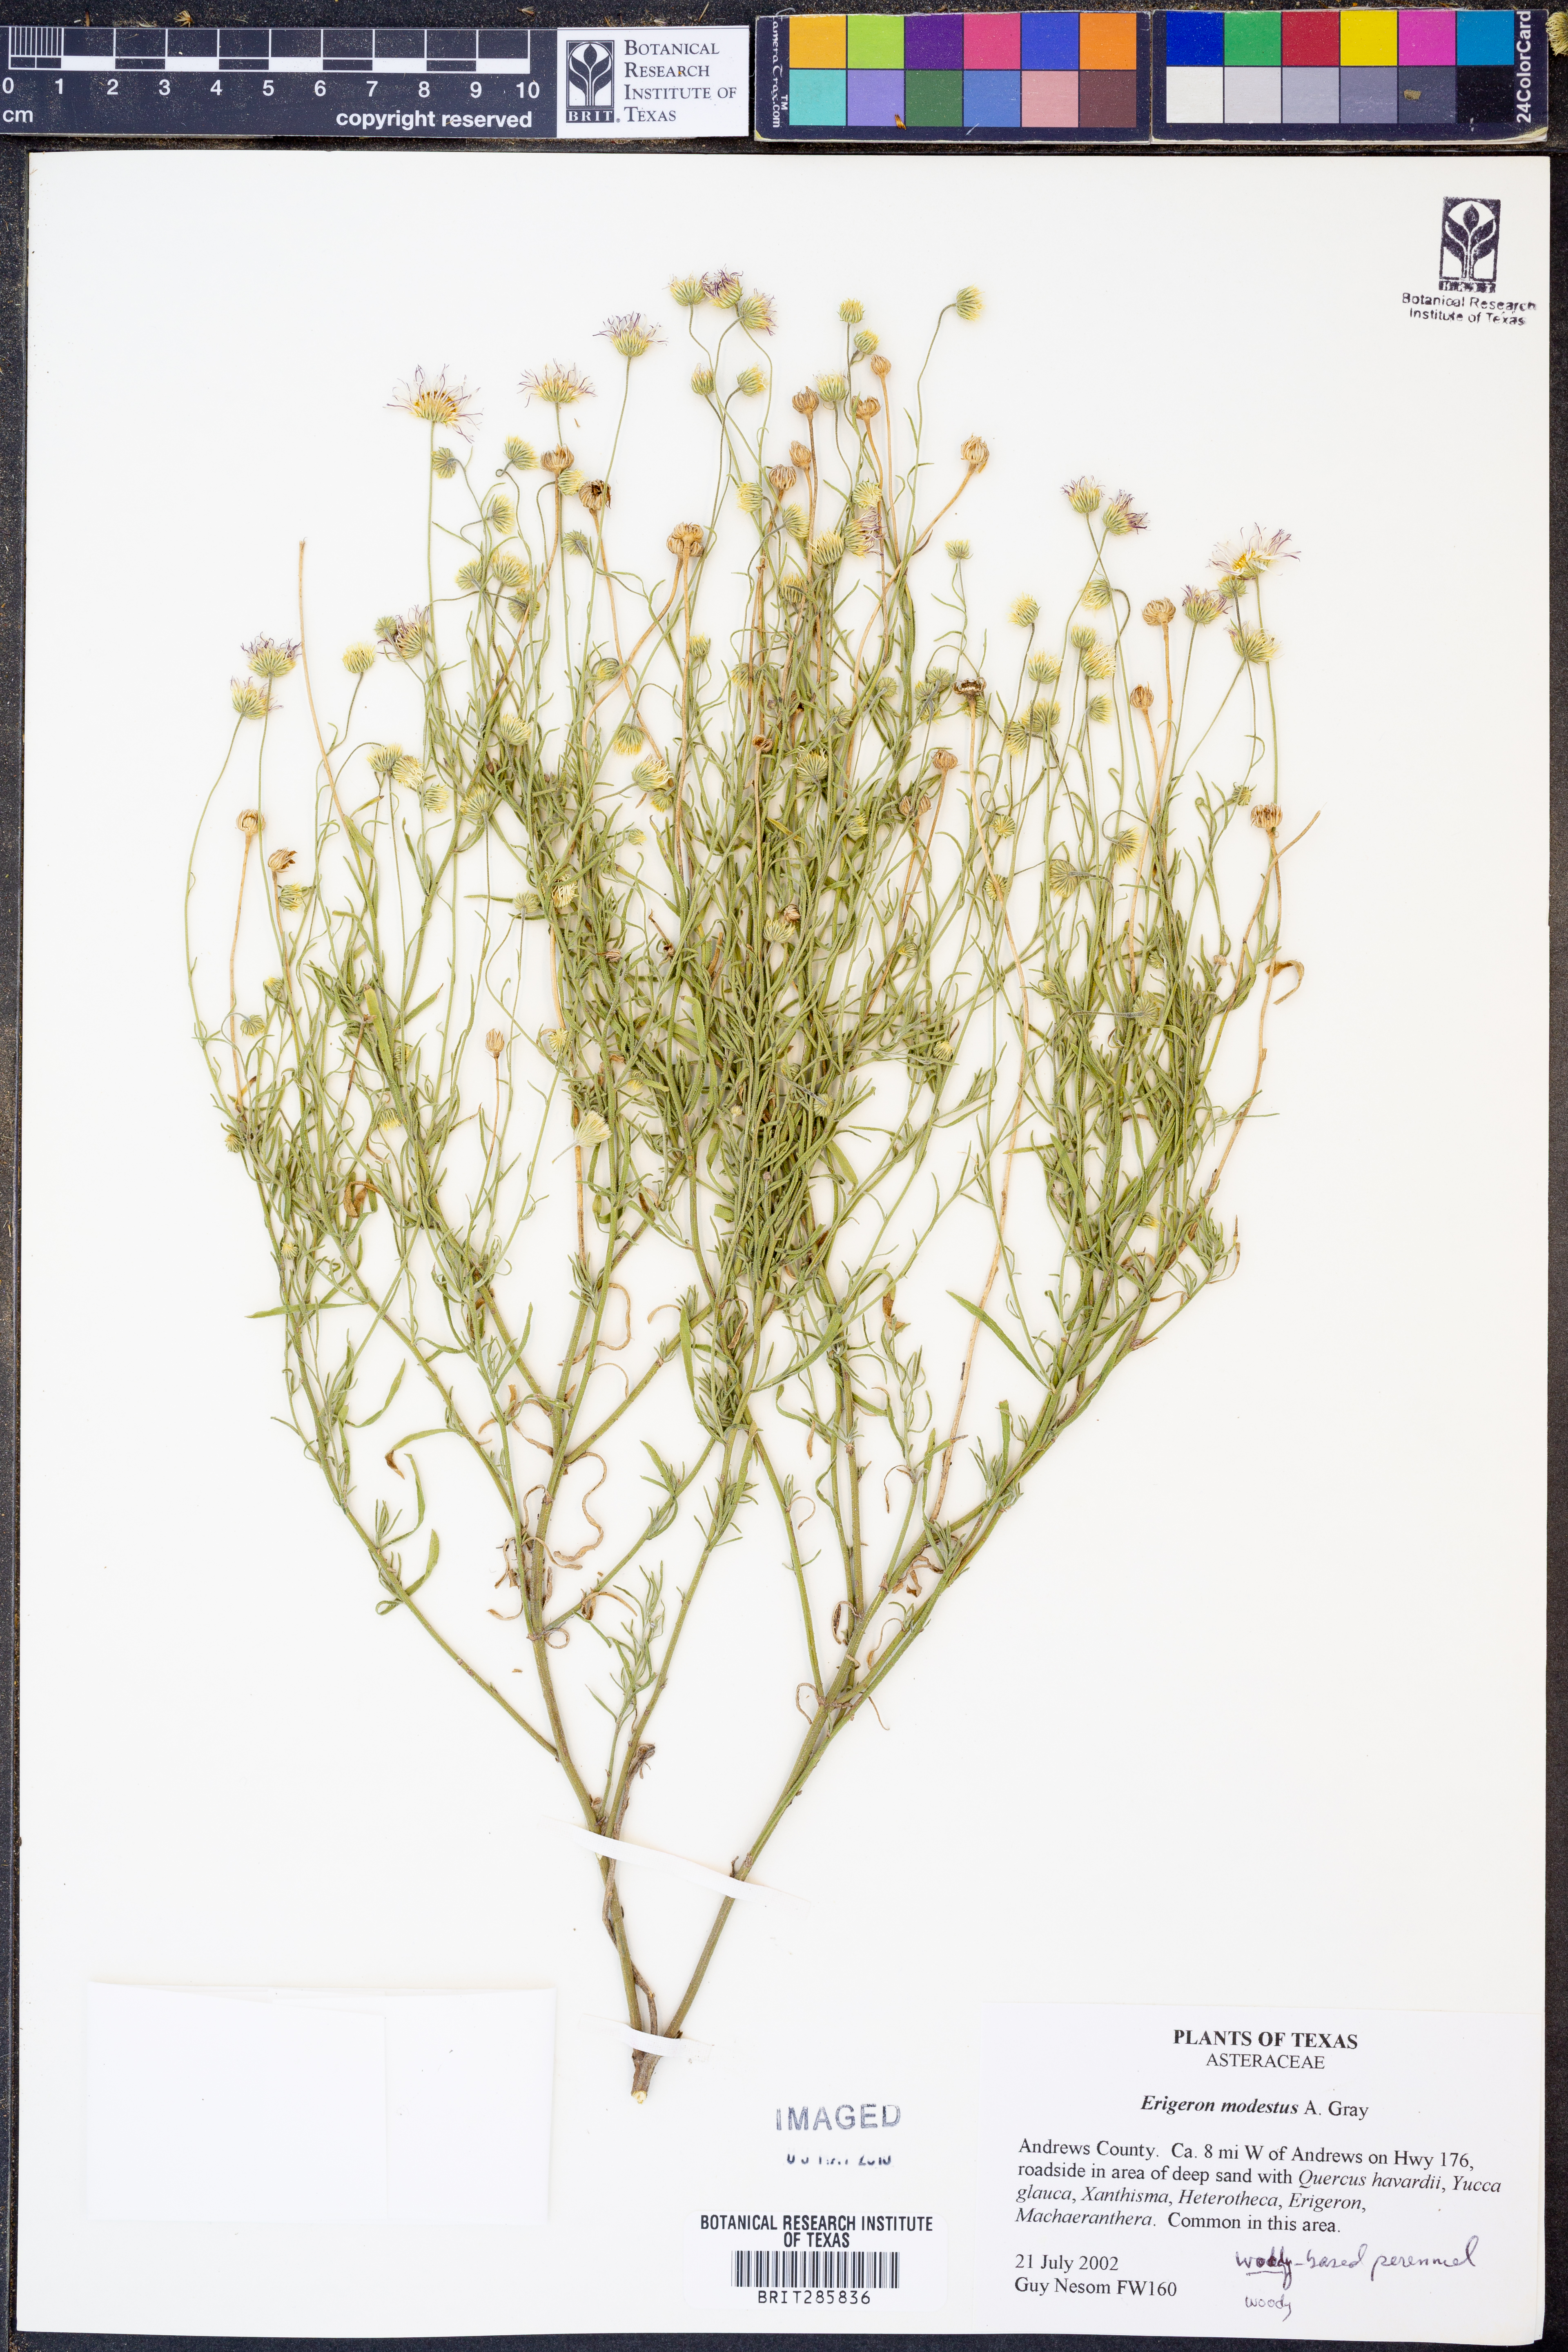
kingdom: Plantae
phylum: Tracheophyta
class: Magnoliopsida
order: Asterales
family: Asteraceae
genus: Erigeron
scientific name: Erigeron modestus
